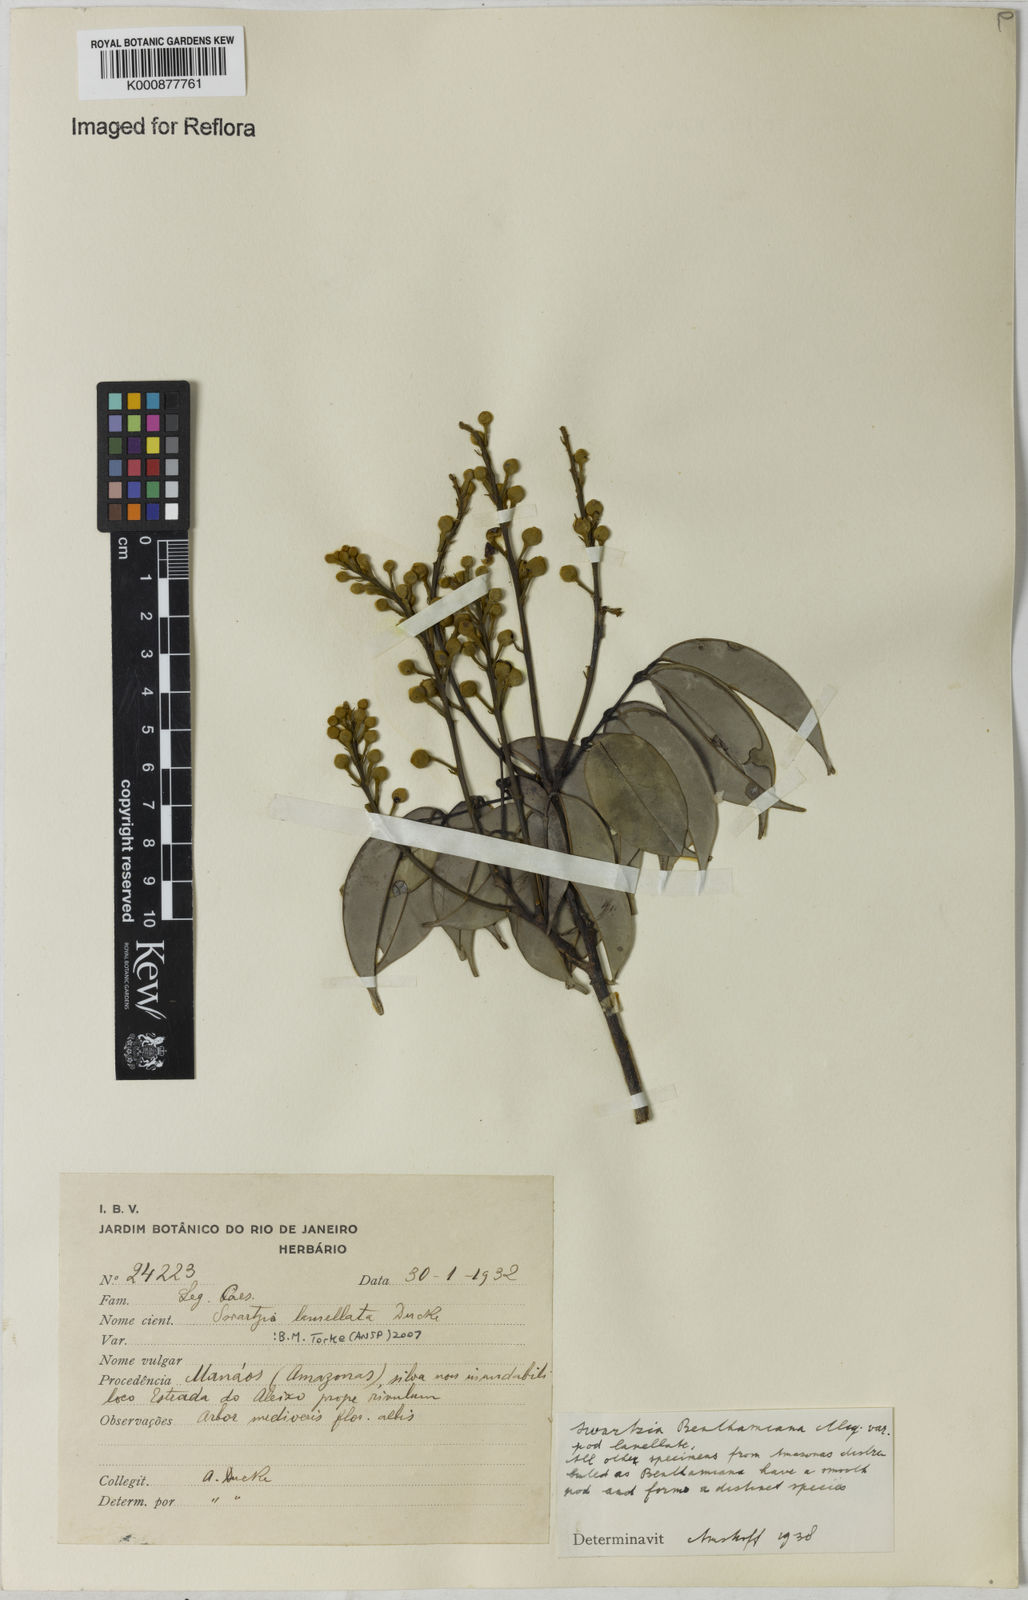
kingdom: Plantae
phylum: Tracheophyta
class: Magnoliopsida
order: Fabales
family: Fabaceae
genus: Swartzia
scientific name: Swartzia lamellata
